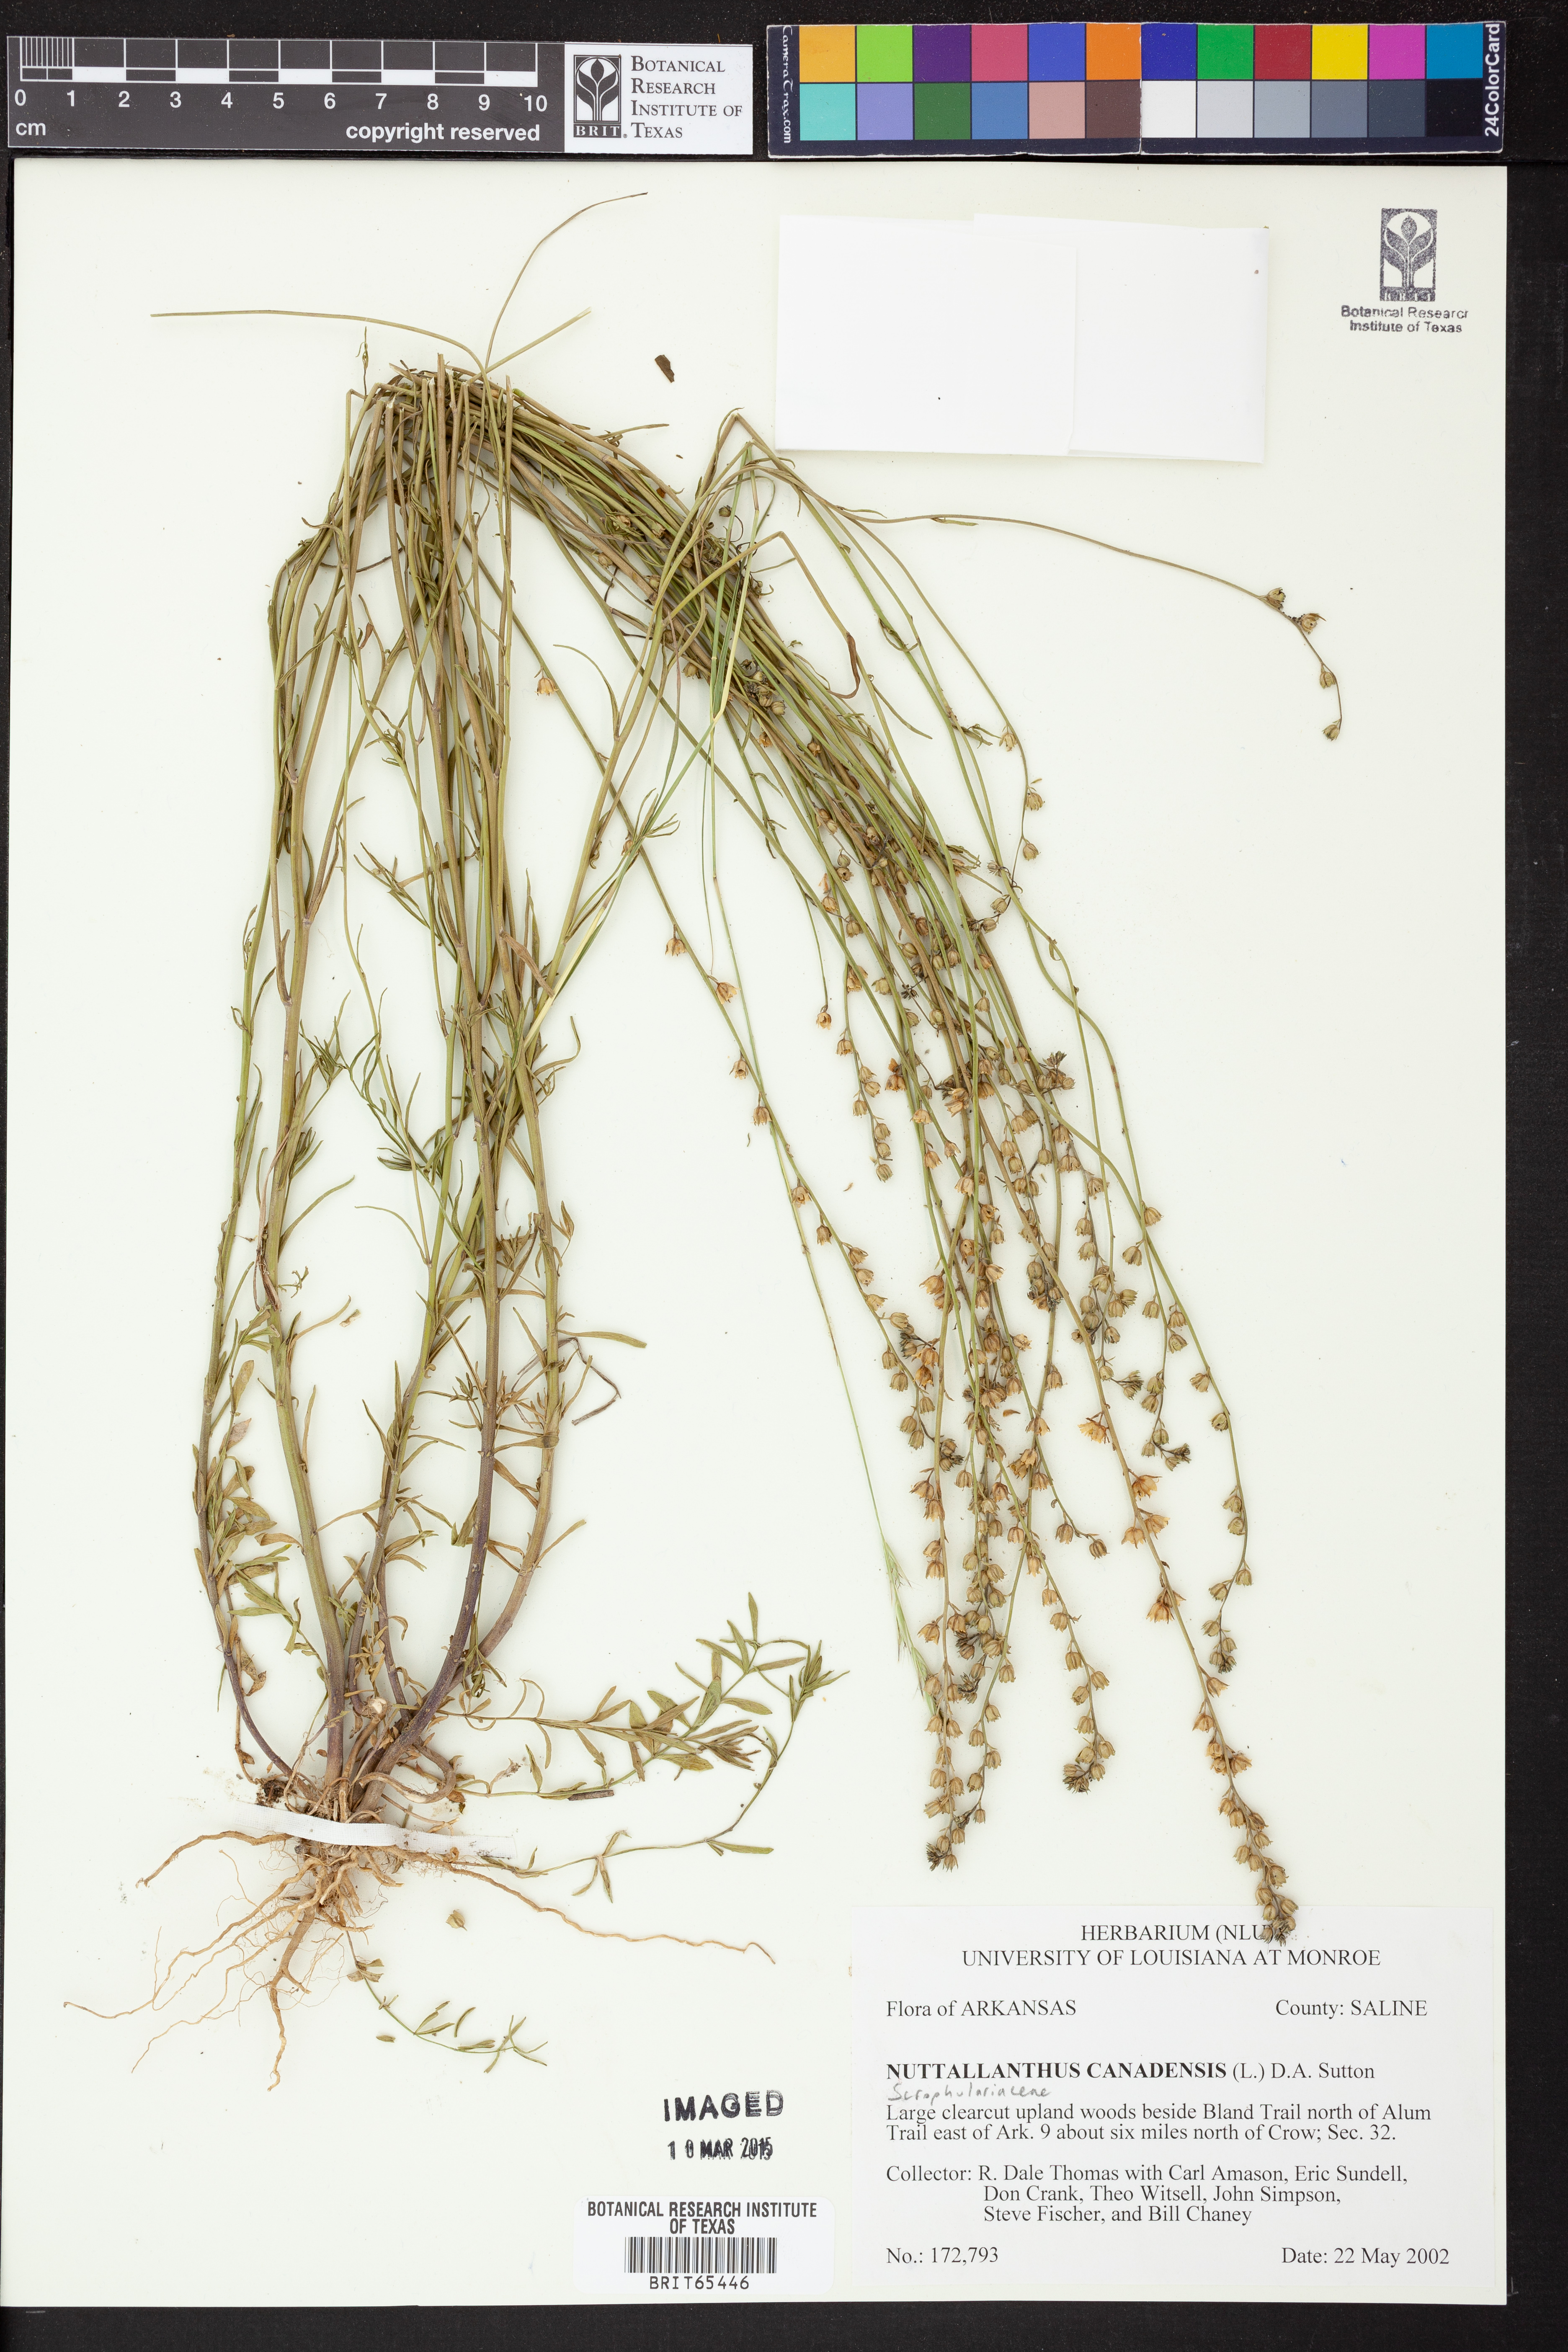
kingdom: Plantae
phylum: Tracheophyta
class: Magnoliopsida
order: Lamiales
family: Plantaginaceae
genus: Nuttallanthus
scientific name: Nuttallanthus canadensis
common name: Blue toadflax
